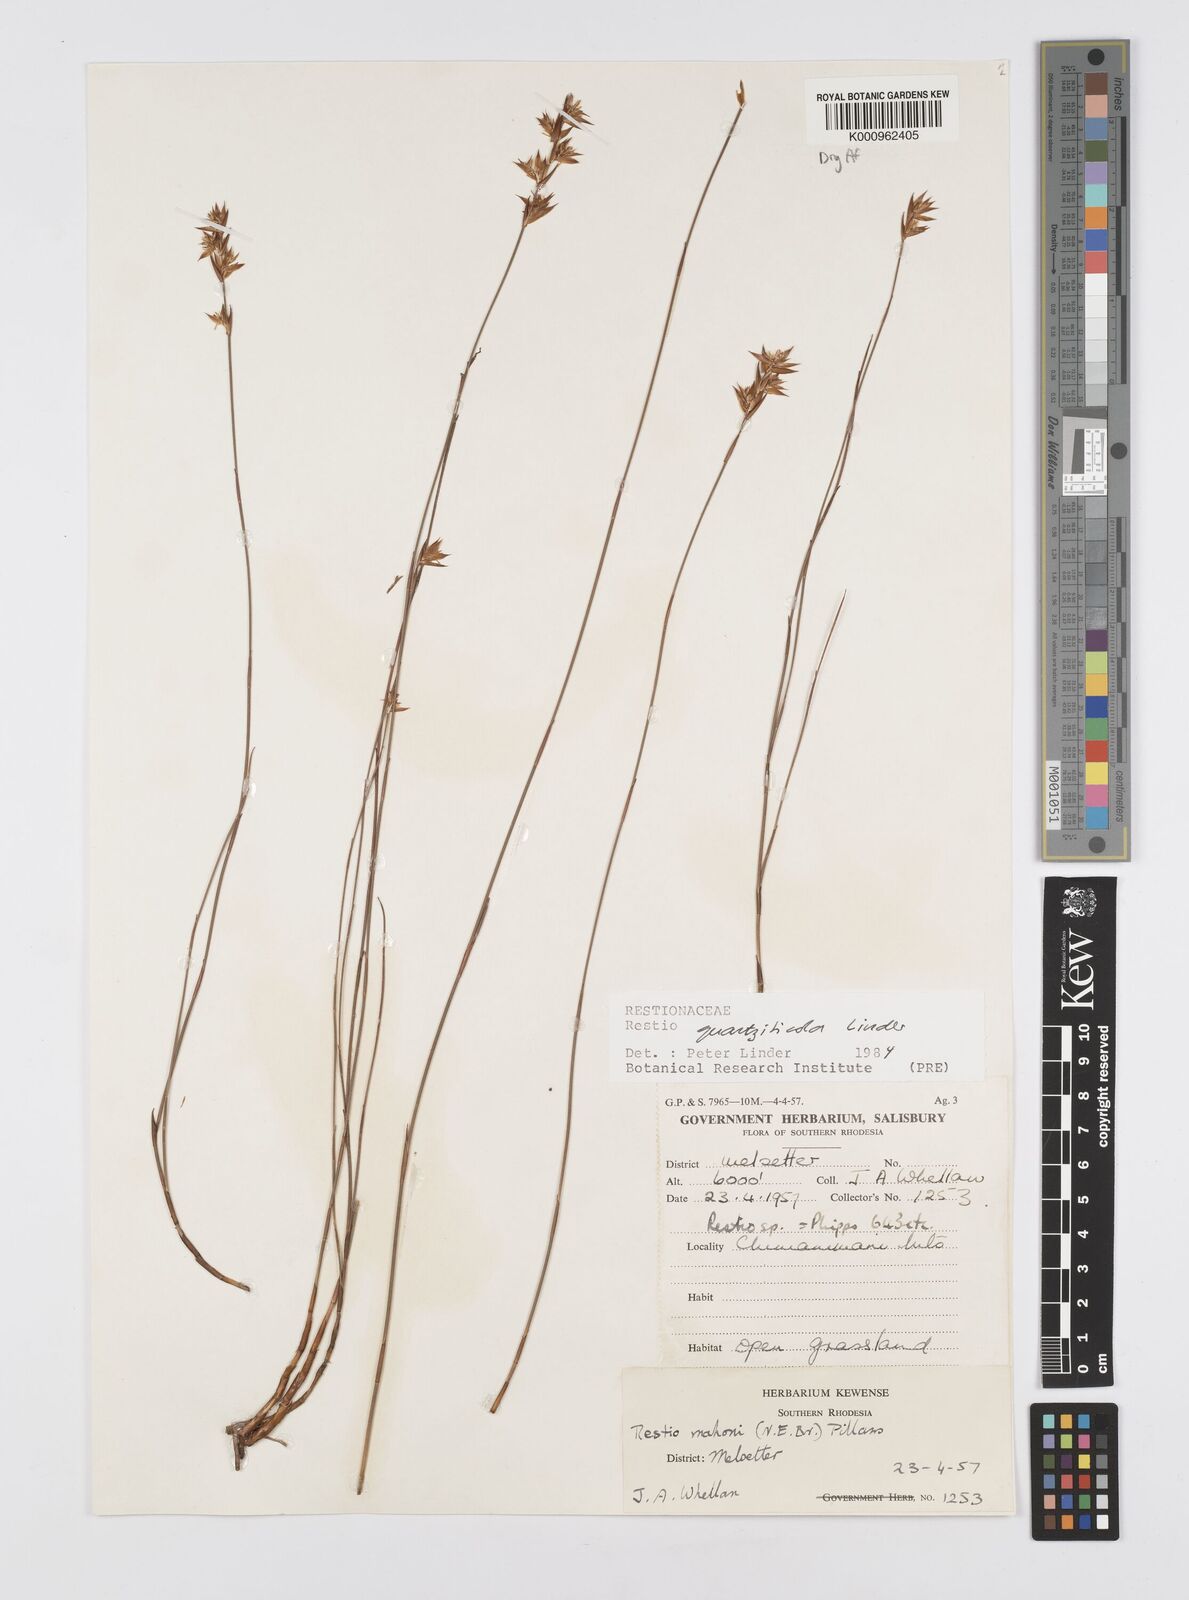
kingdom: Plantae
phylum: Tracheophyta
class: Liliopsida
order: Poales
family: Restionaceae
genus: Platycaulos
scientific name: Platycaulos quartziticola
